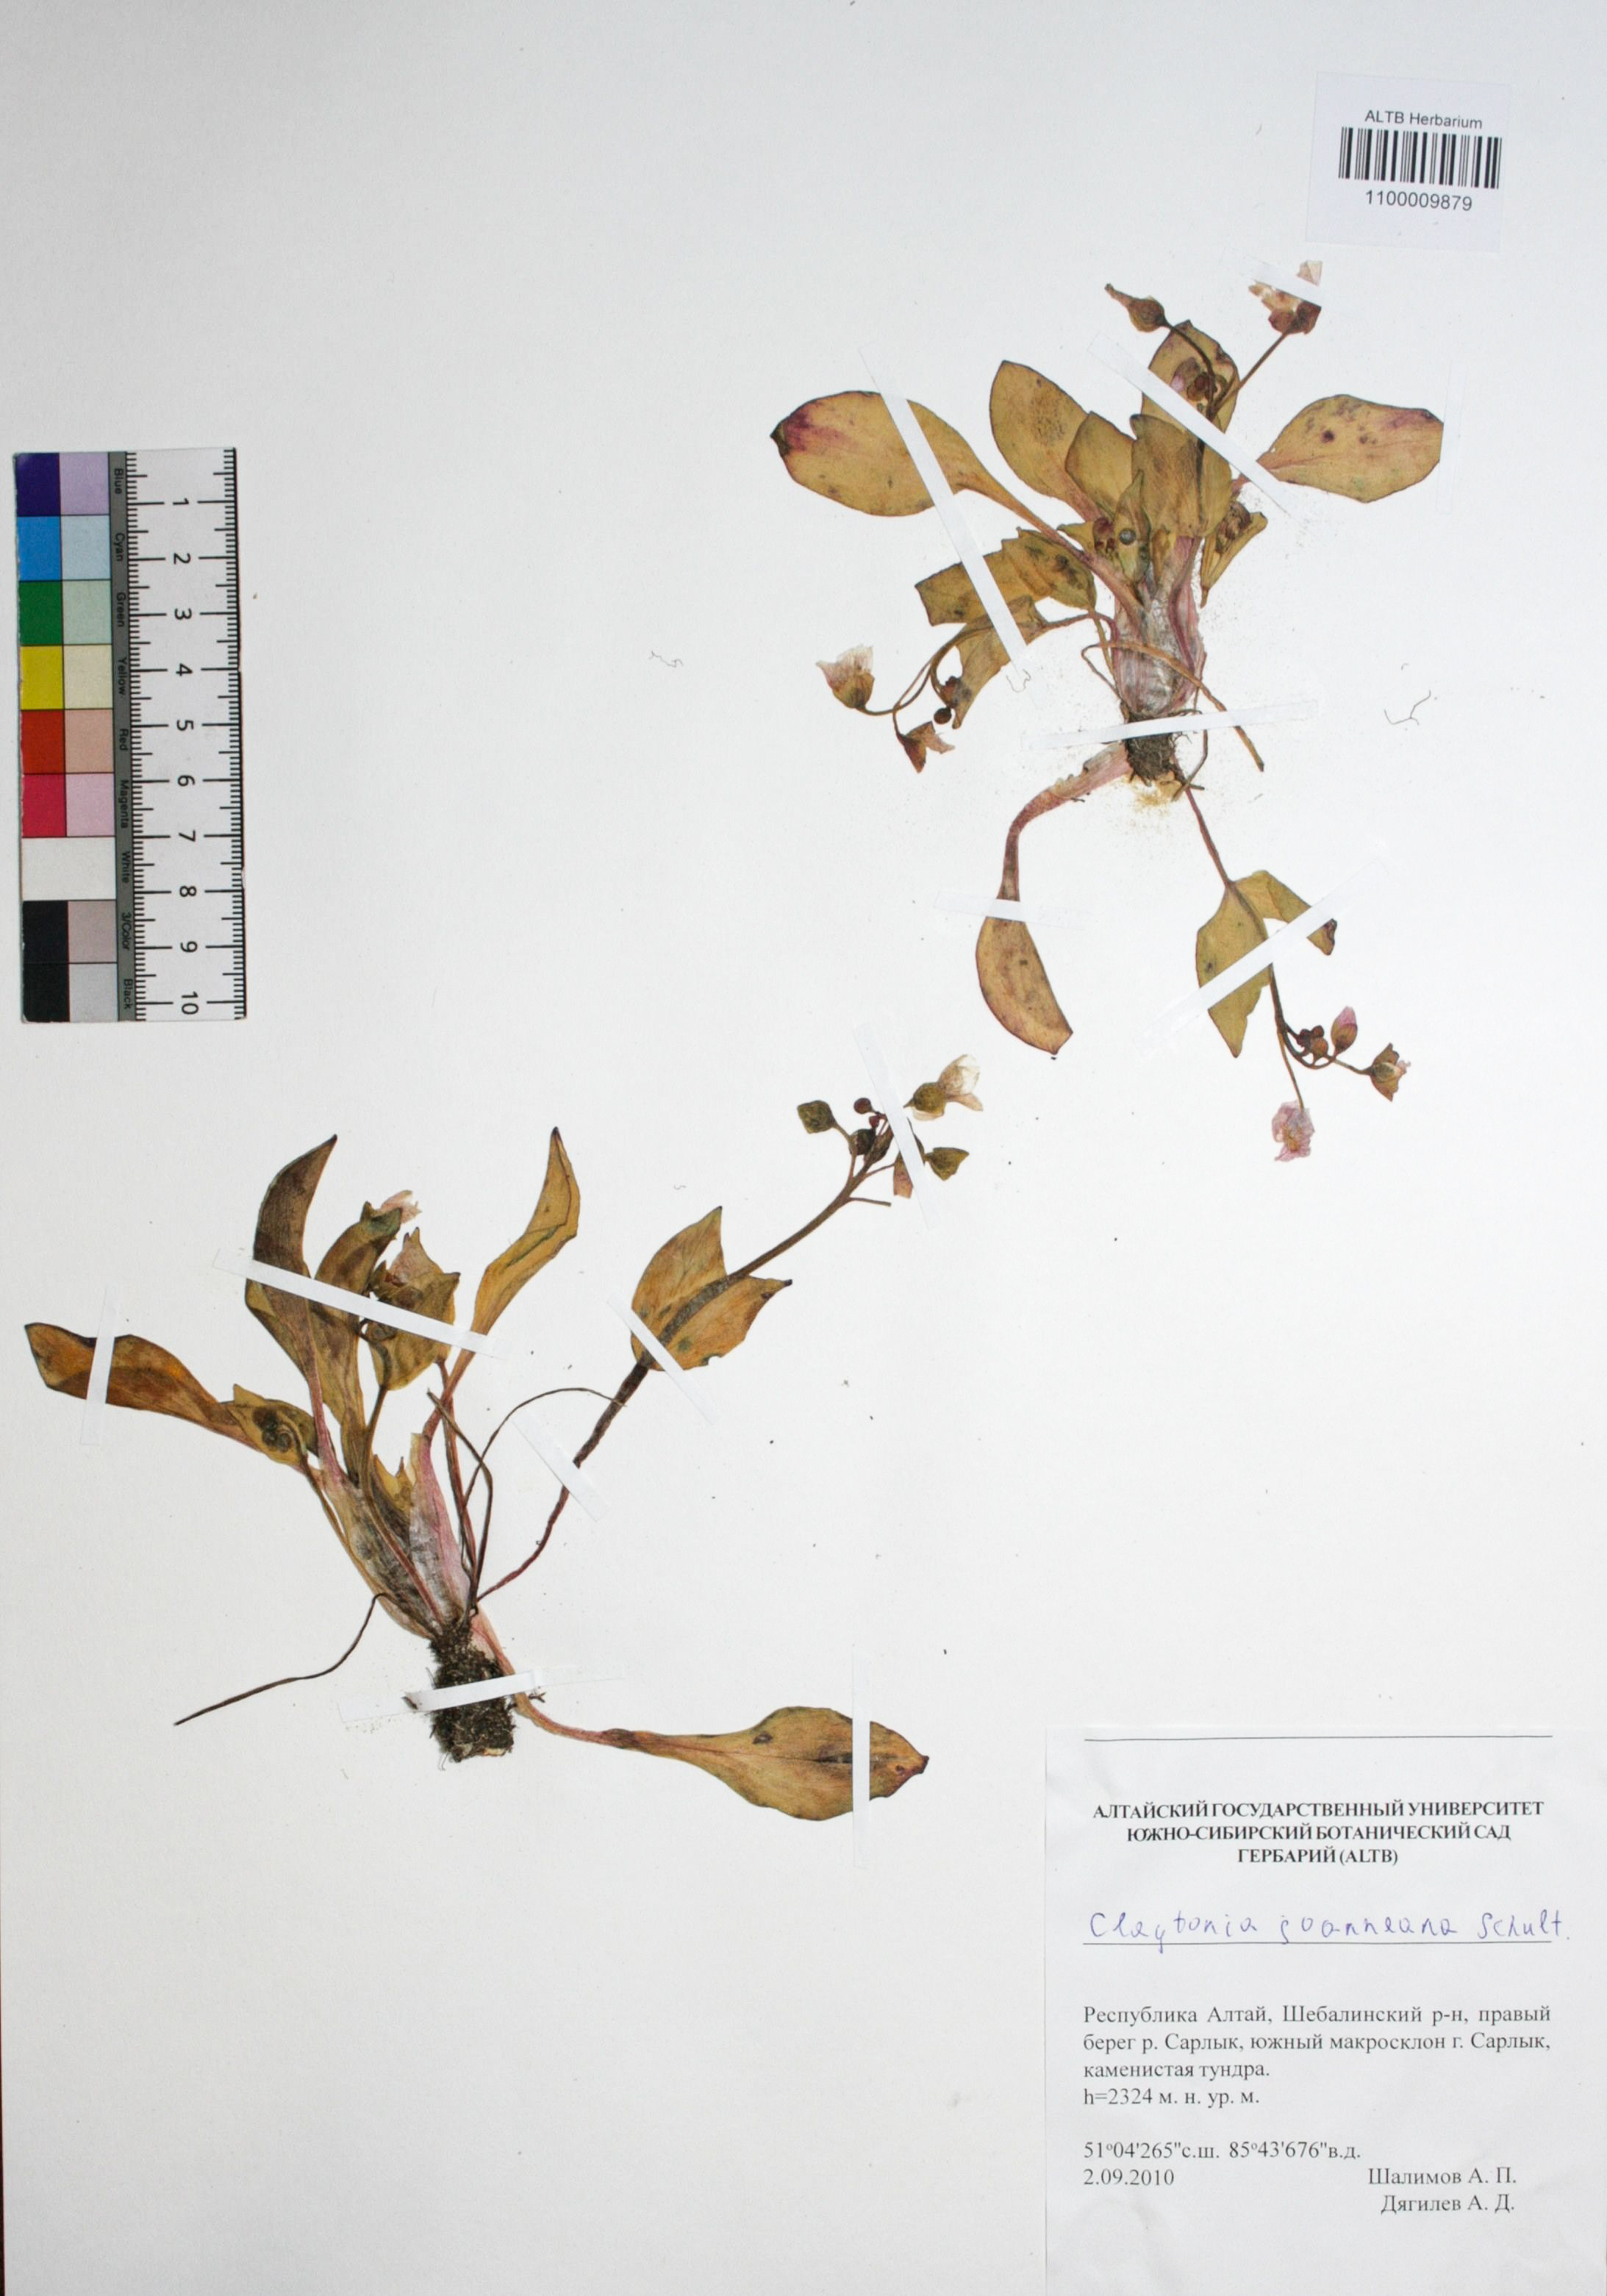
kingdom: Plantae
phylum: Tracheophyta
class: Magnoliopsida
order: Caryophyllales
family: Montiaceae
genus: Claytonia
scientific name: Claytonia joanneana
